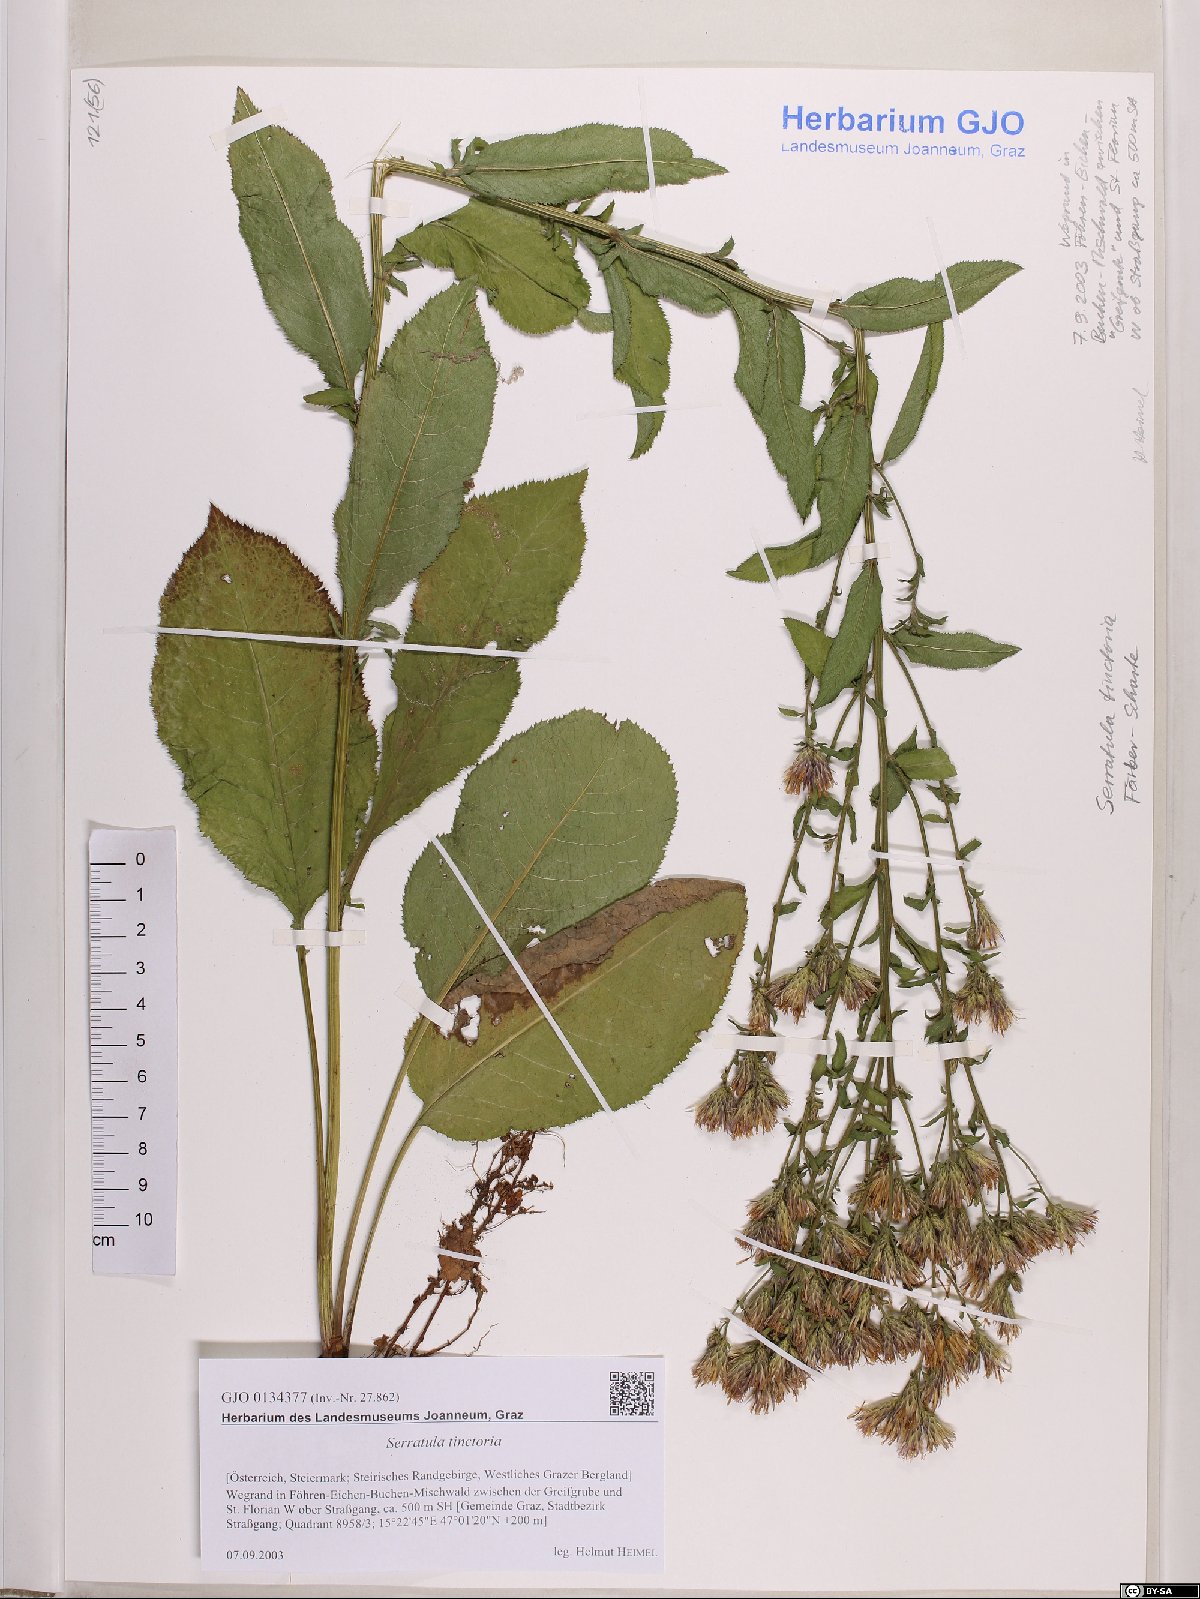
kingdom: Plantae
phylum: Tracheophyta
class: Magnoliopsida
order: Asterales
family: Asteraceae
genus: Serratula
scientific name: Serratula tinctoria
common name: Saw-wort
